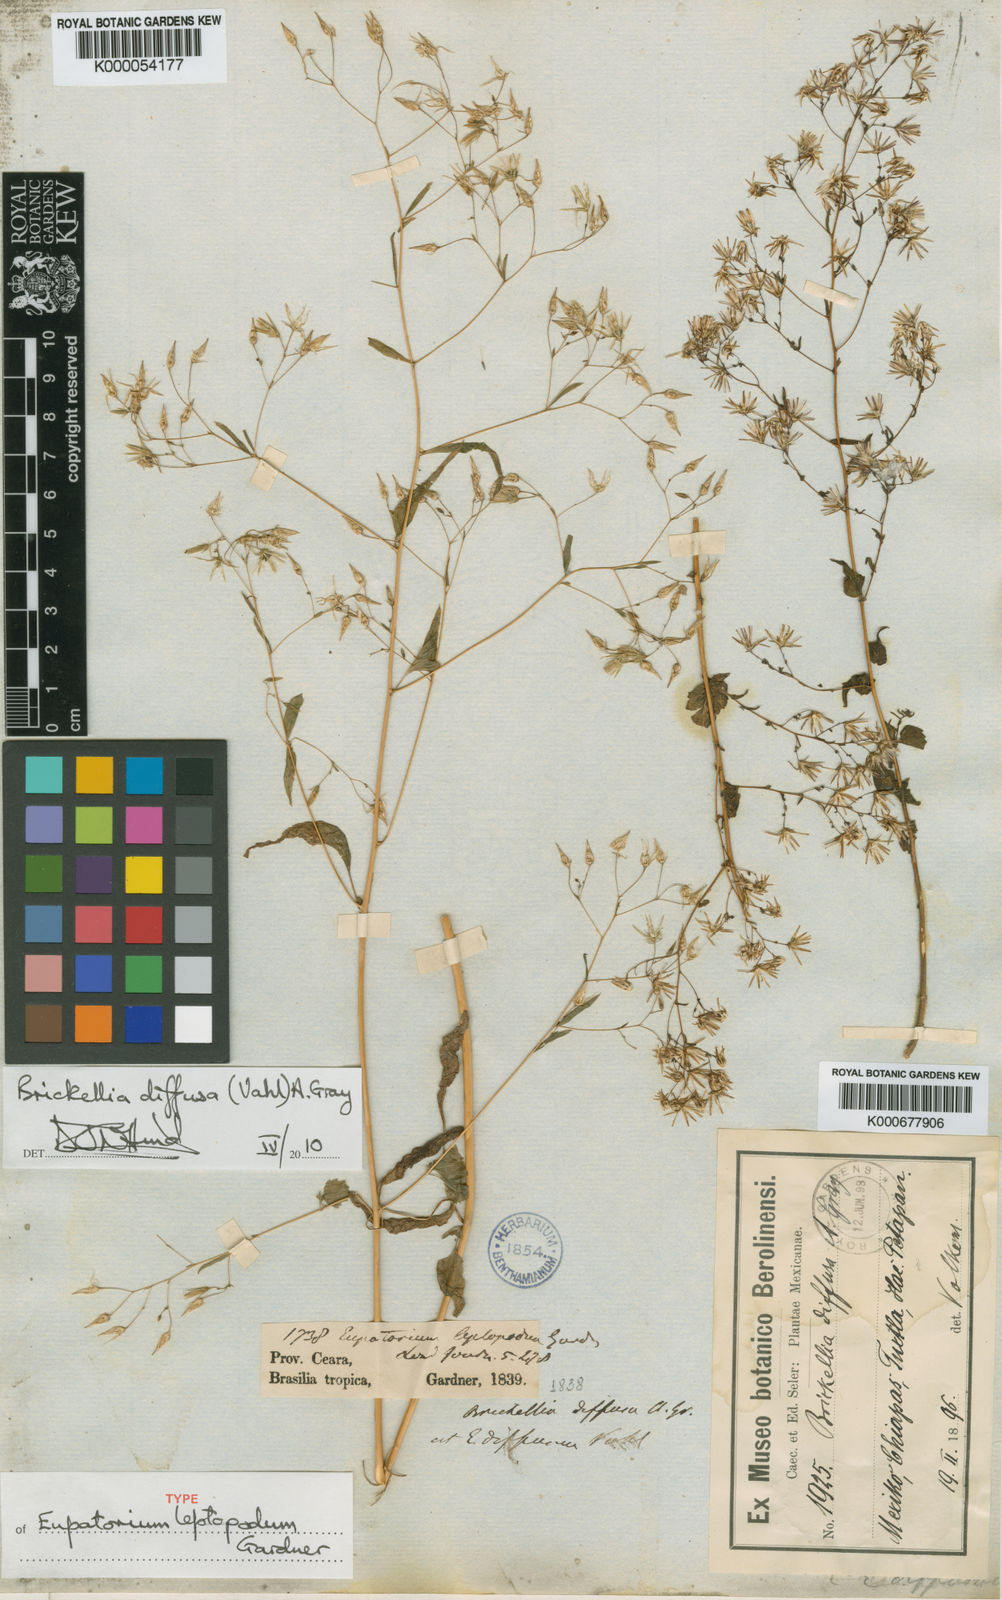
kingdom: Plantae
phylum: Tracheophyta
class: Magnoliopsida
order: Asterales
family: Asteraceae
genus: Brickellia
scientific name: Brickellia diffusa
